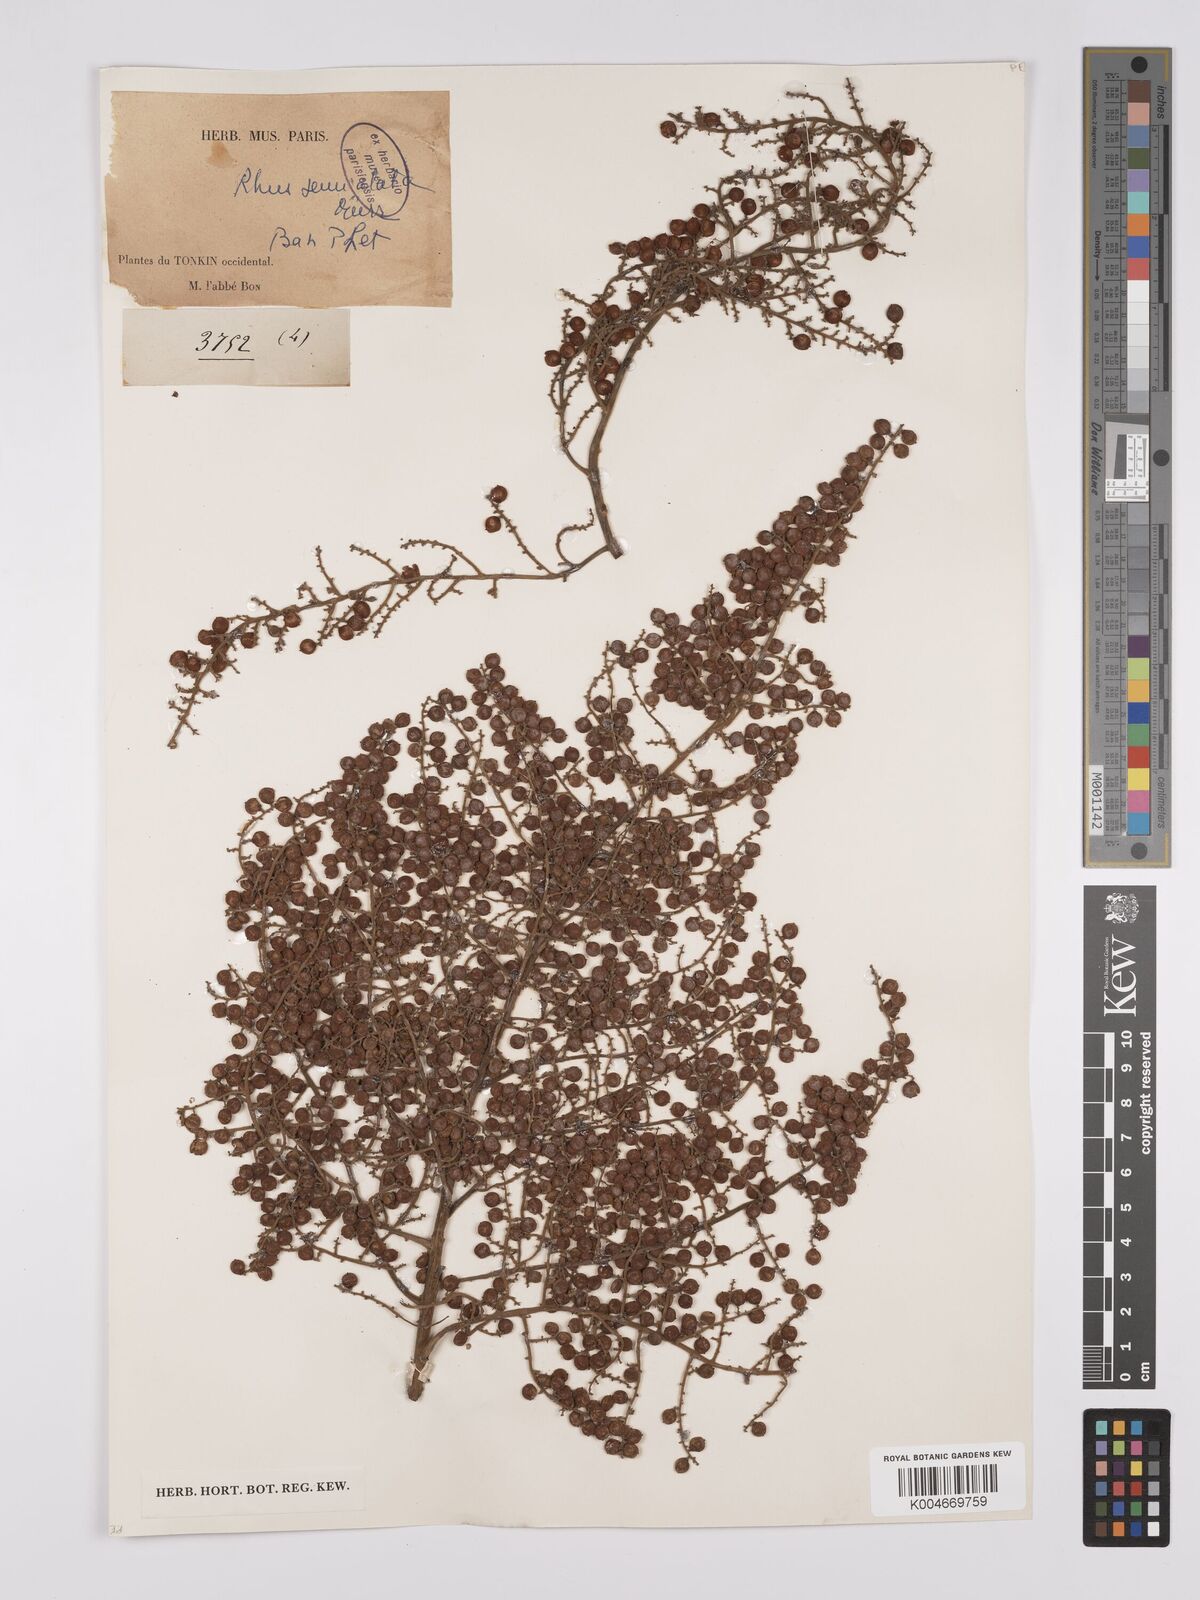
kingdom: Plantae
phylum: Tracheophyta
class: Magnoliopsida
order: Sapindales
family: Anacardiaceae
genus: Rhus
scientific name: Rhus chinensis
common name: Chinese gall
